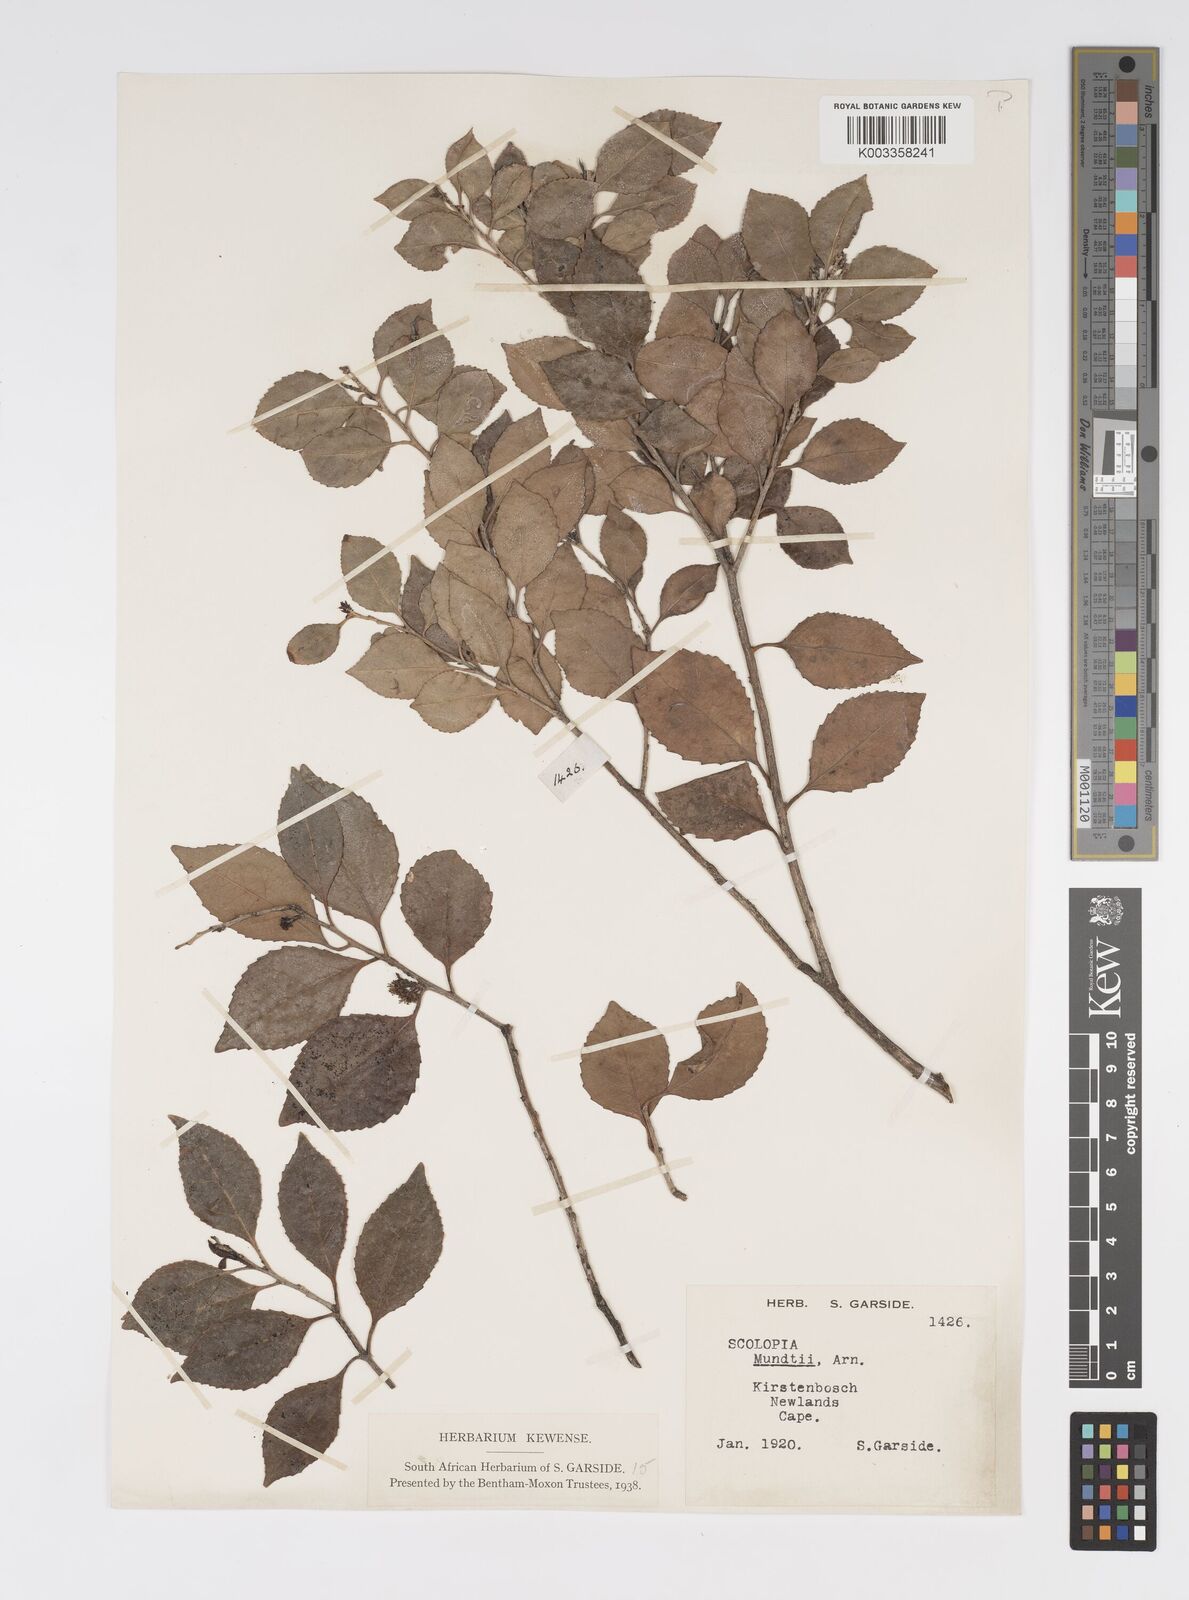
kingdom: Plantae
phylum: Tracheophyta
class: Magnoliopsida
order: Malpighiales
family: Salicaceae
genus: Scolopia
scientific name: Scolopia mundii
